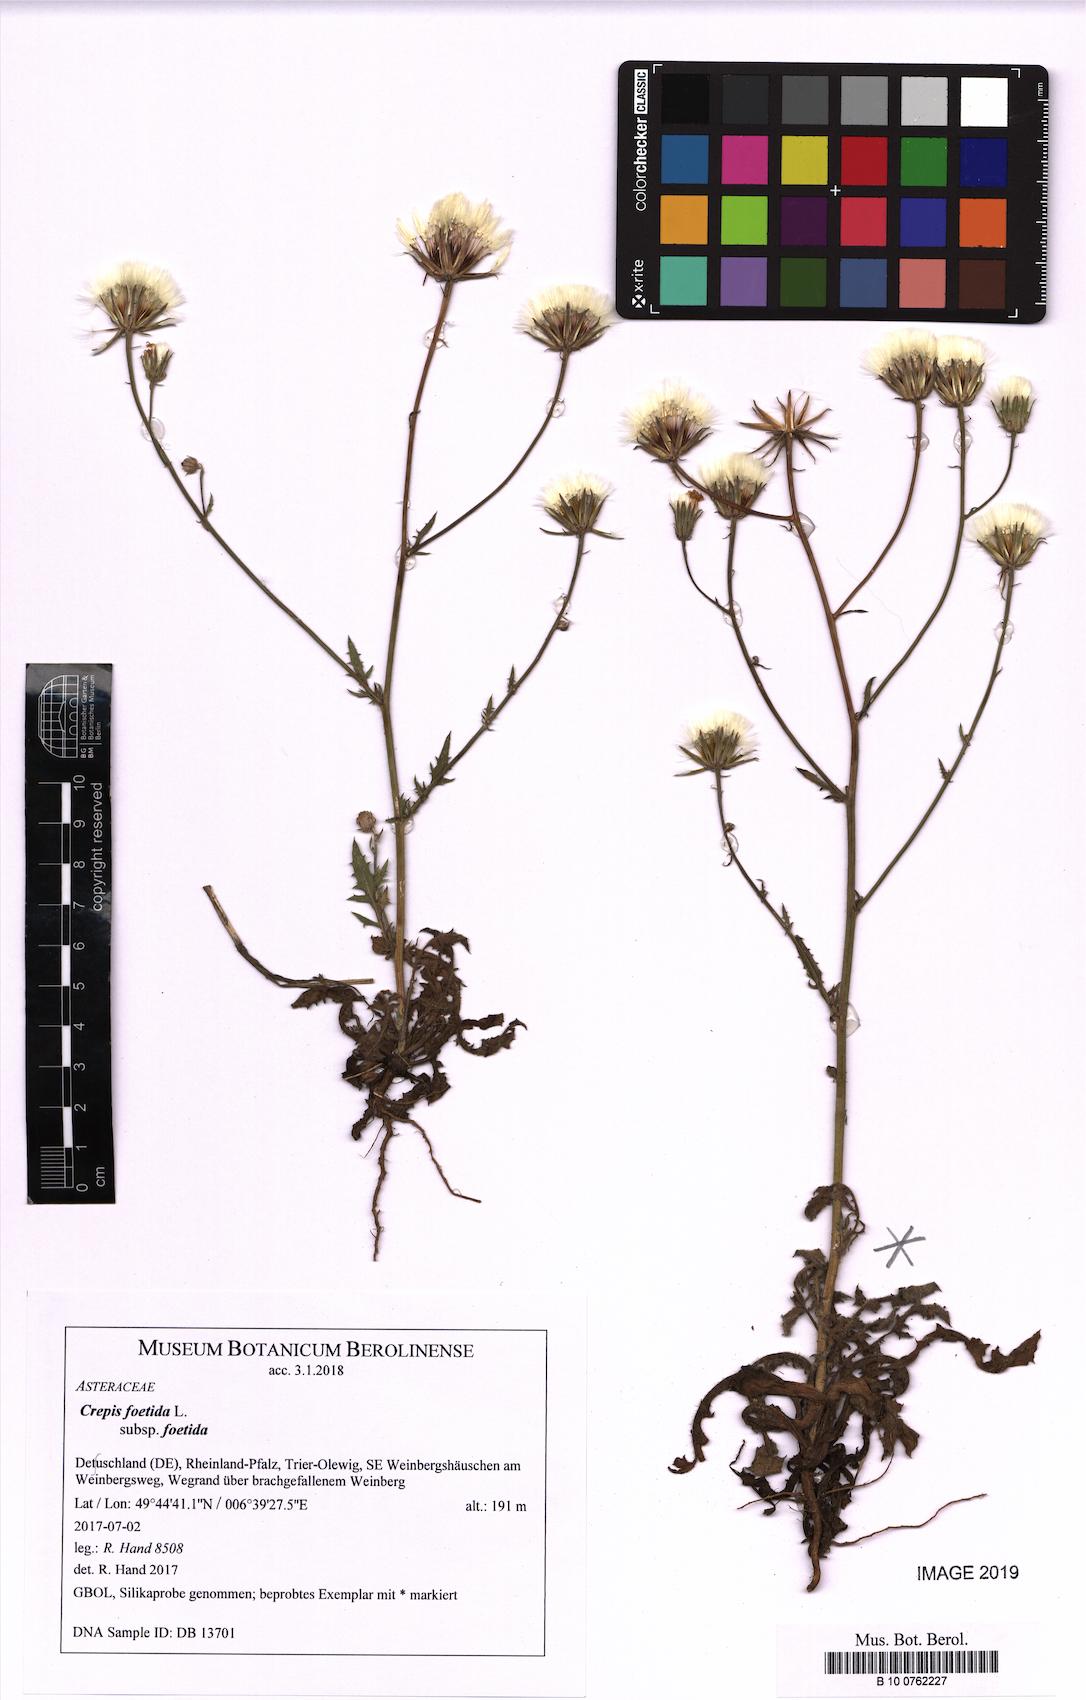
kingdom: Plantae
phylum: Tracheophyta
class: Magnoliopsida
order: Asterales
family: Asteraceae
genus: Crepis
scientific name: Crepis foetida
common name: Stinking hawk's-beard
